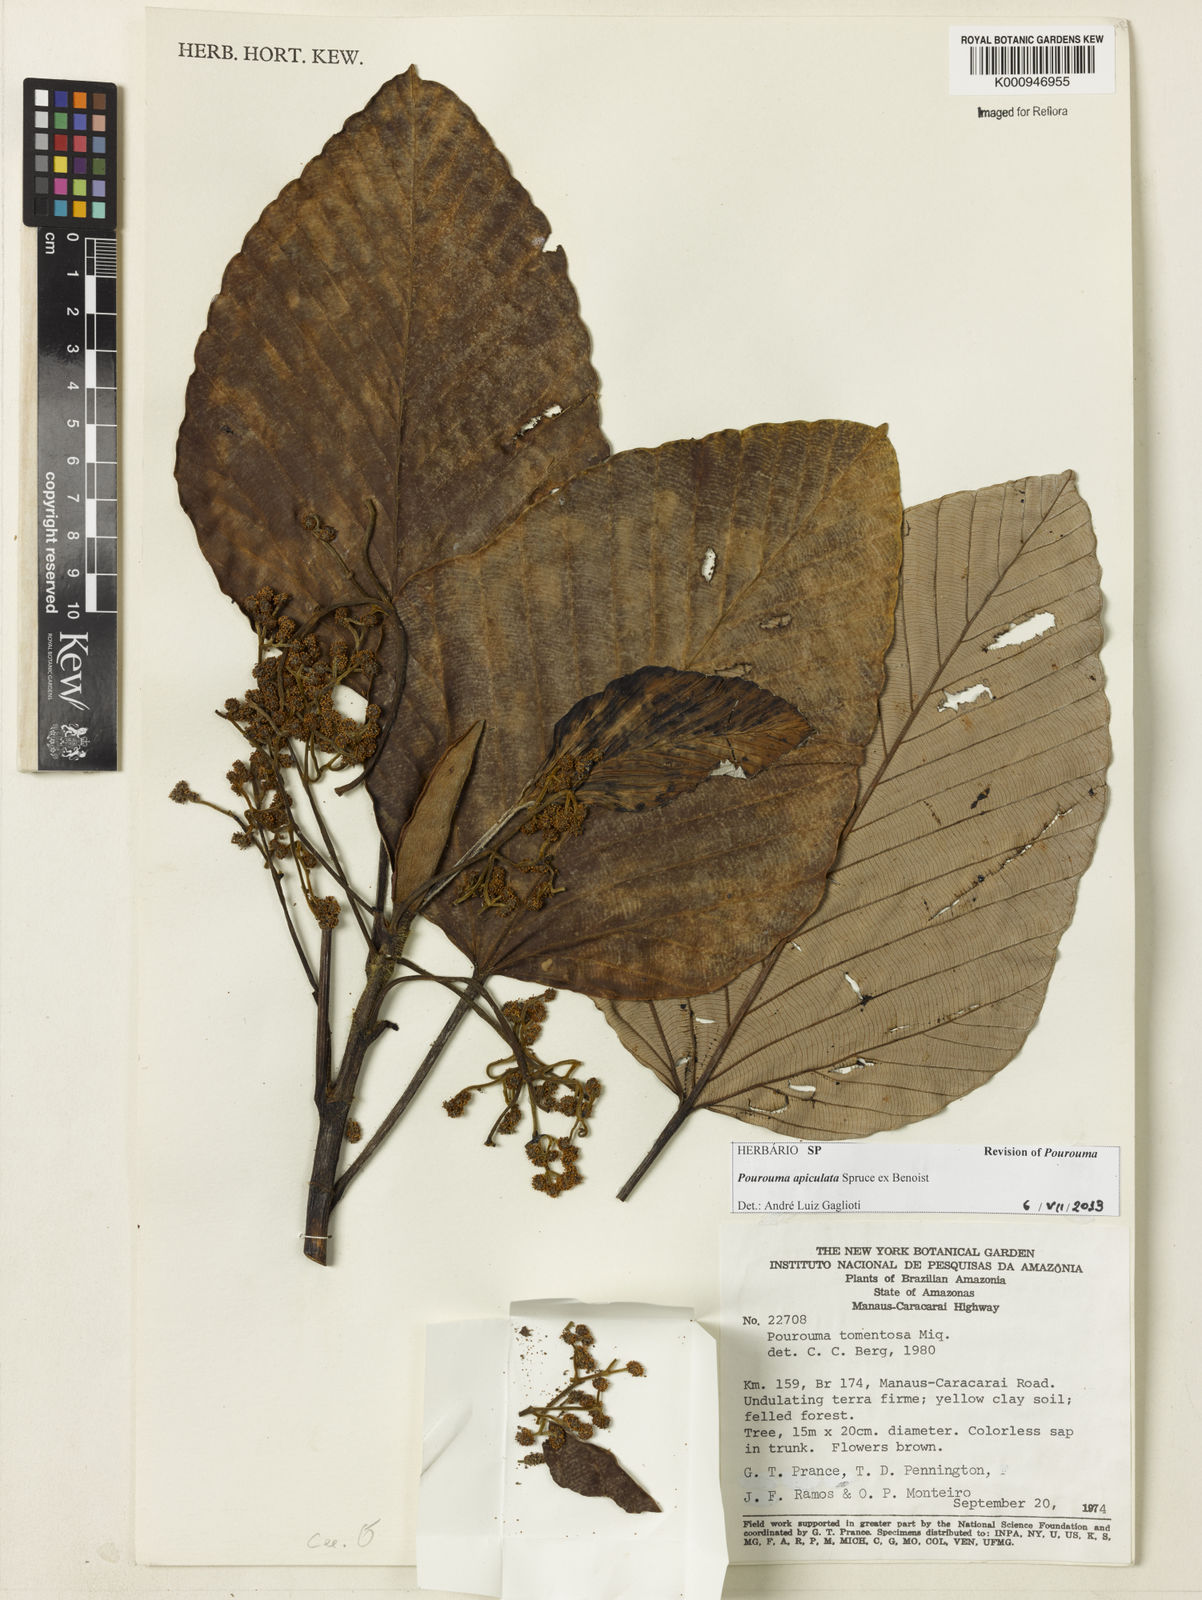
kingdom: Plantae
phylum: Tracheophyta
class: Magnoliopsida
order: Rosales
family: Urticaceae
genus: Pourouma
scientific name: Pourouma tomentosa
